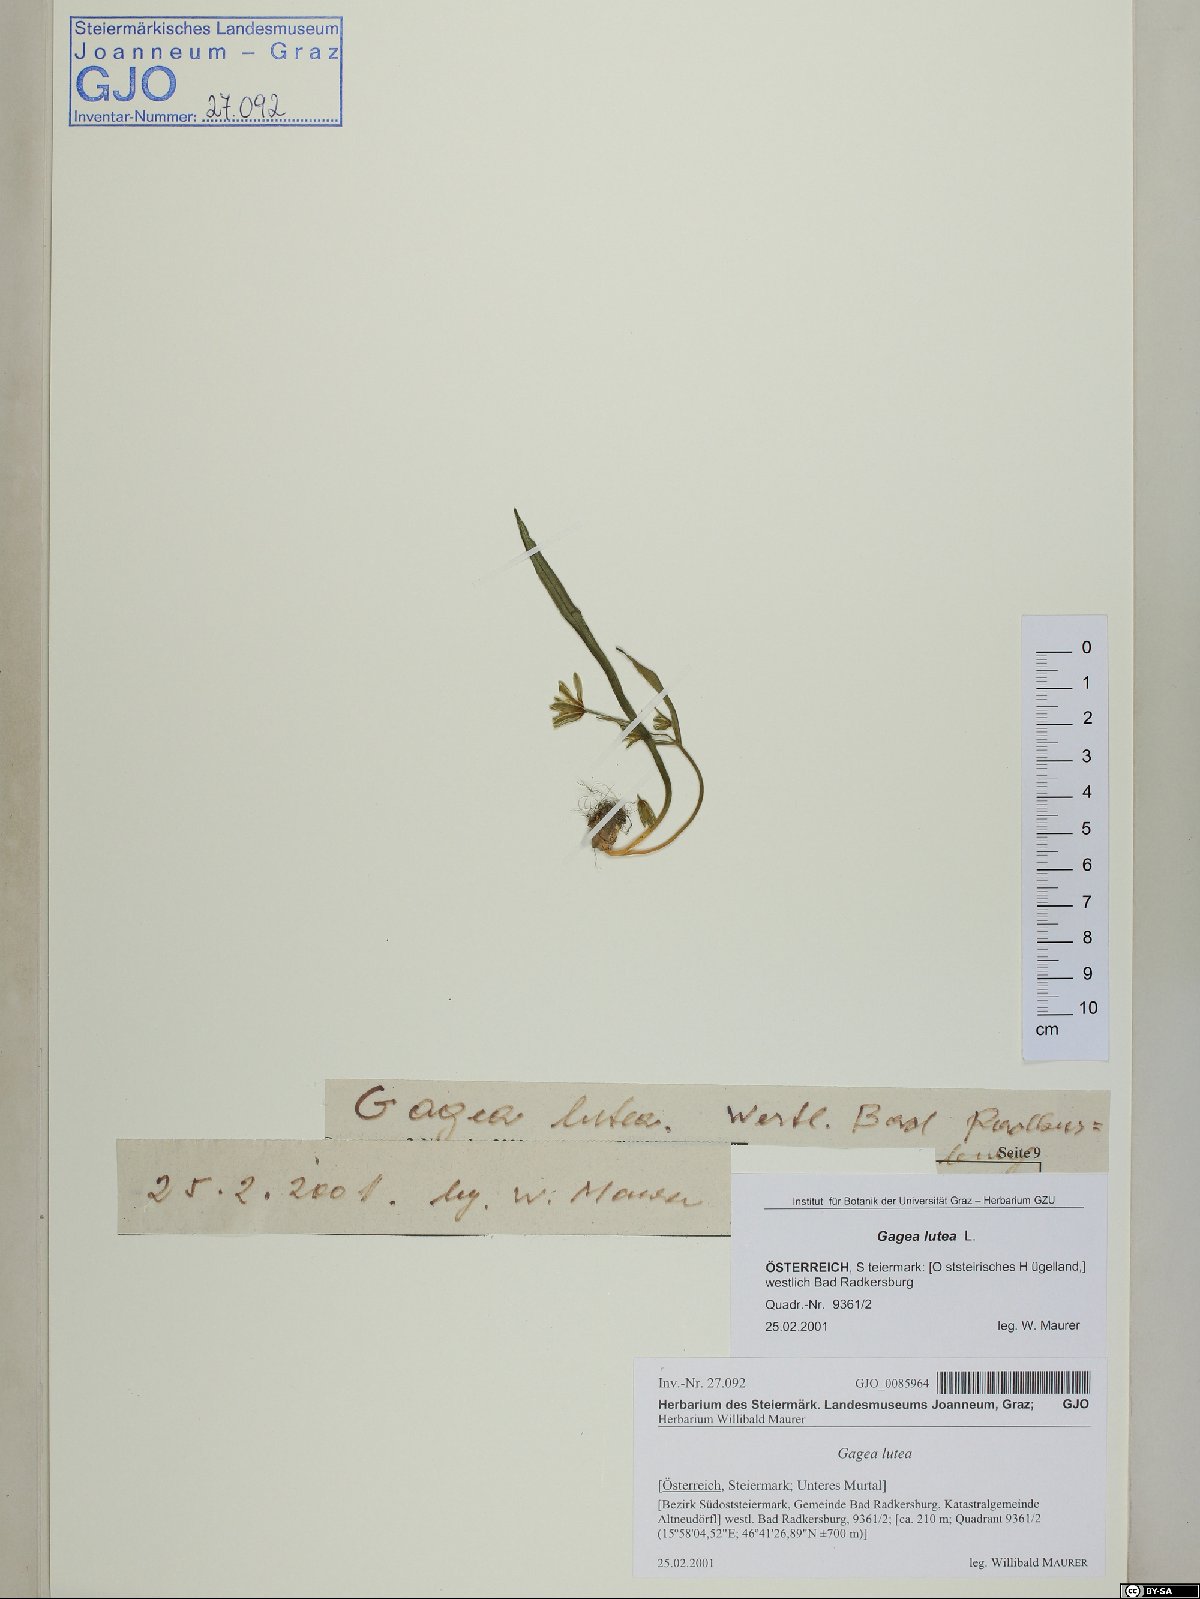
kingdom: Plantae
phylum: Tracheophyta
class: Liliopsida
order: Liliales
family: Liliaceae
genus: Gagea
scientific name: Gagea lutea
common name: Yellow star-of-bethlehem
